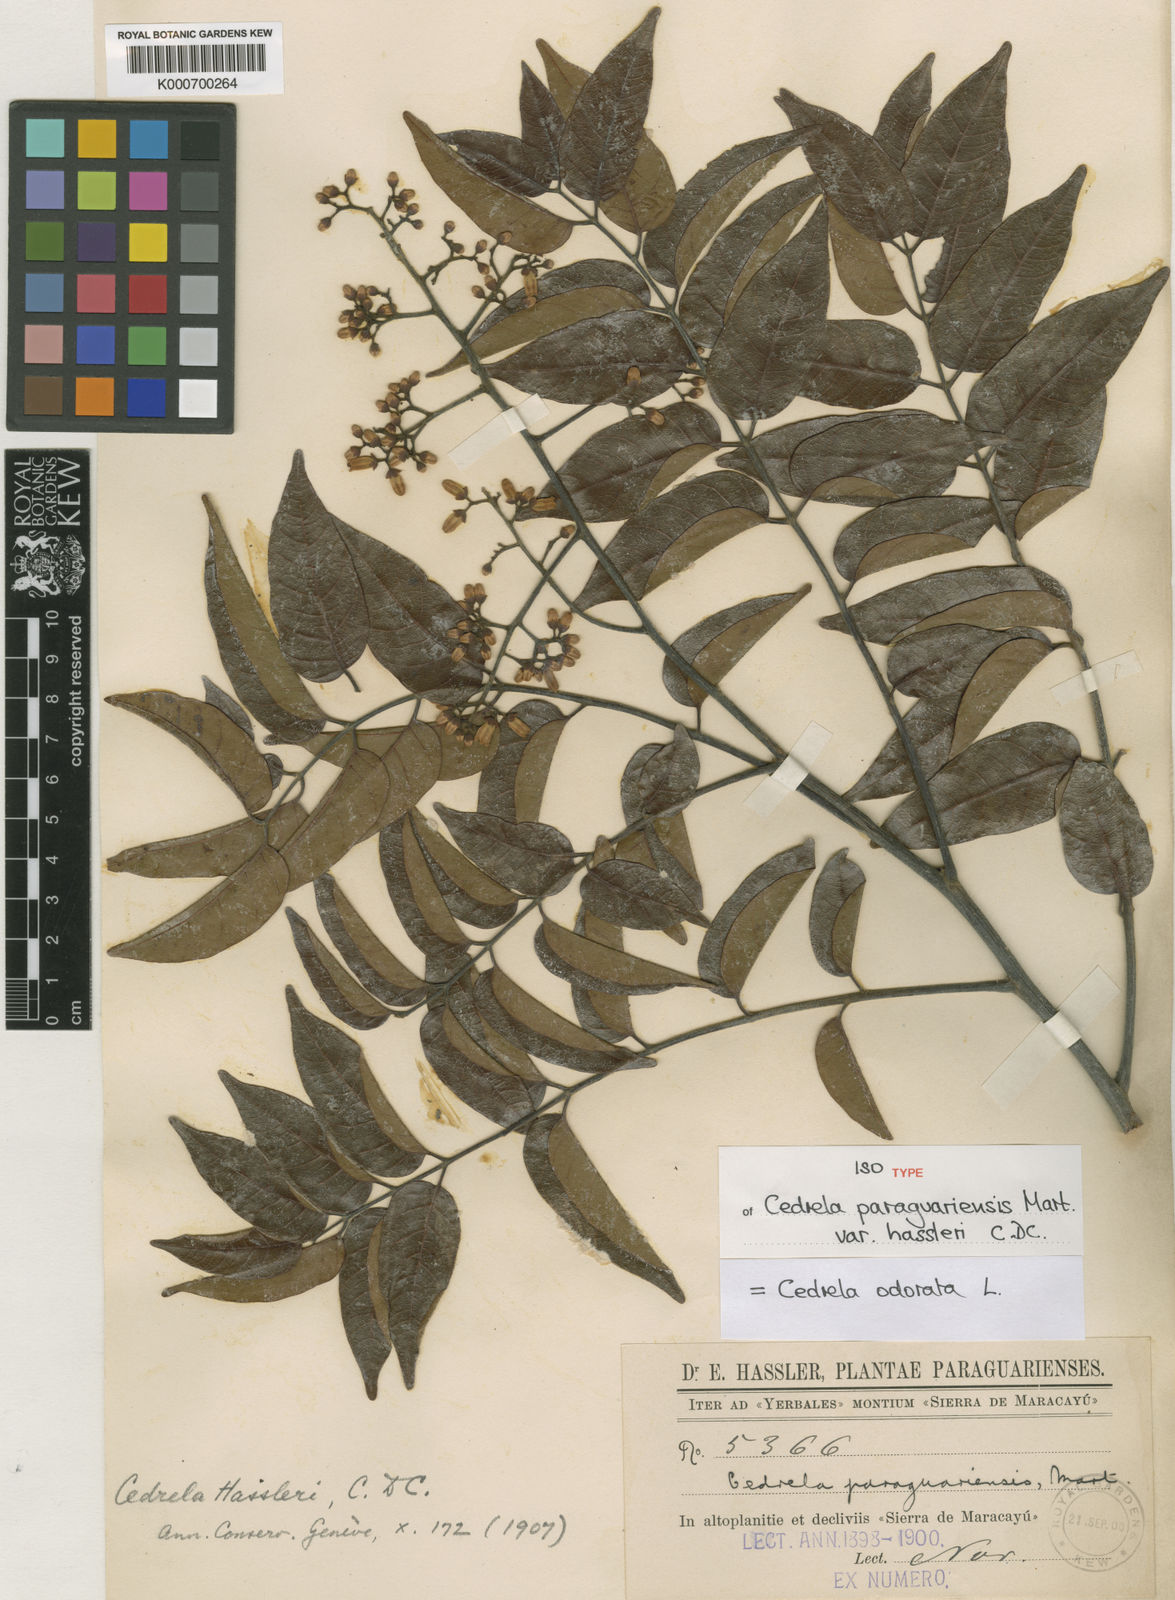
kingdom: Plantae
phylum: Tracheophyta
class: Magnoliopsida
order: Sapindales
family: Meliaceae
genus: Cedrela
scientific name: Cedrela odorata
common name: Red cedar
